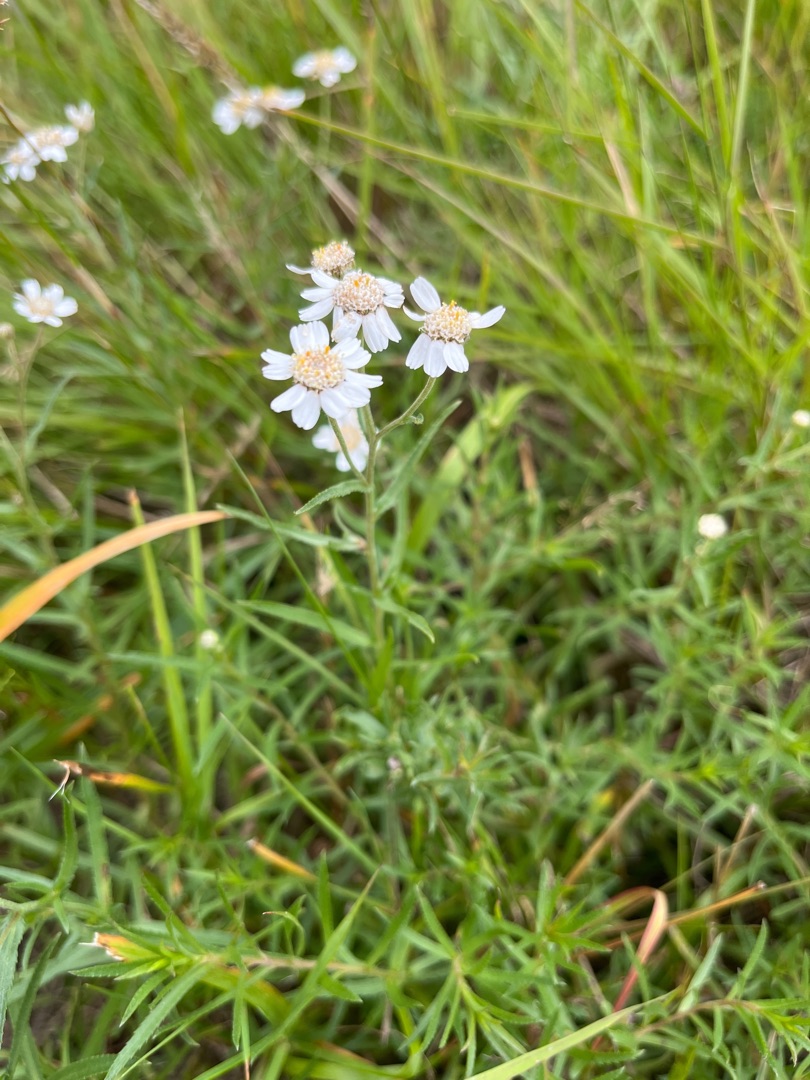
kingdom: Plantae
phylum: Tracheophyta
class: Magnoliopsida
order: Asterales
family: Asteraceae
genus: Achillea
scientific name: Achillea ptarmica
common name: Nyse-røllike
